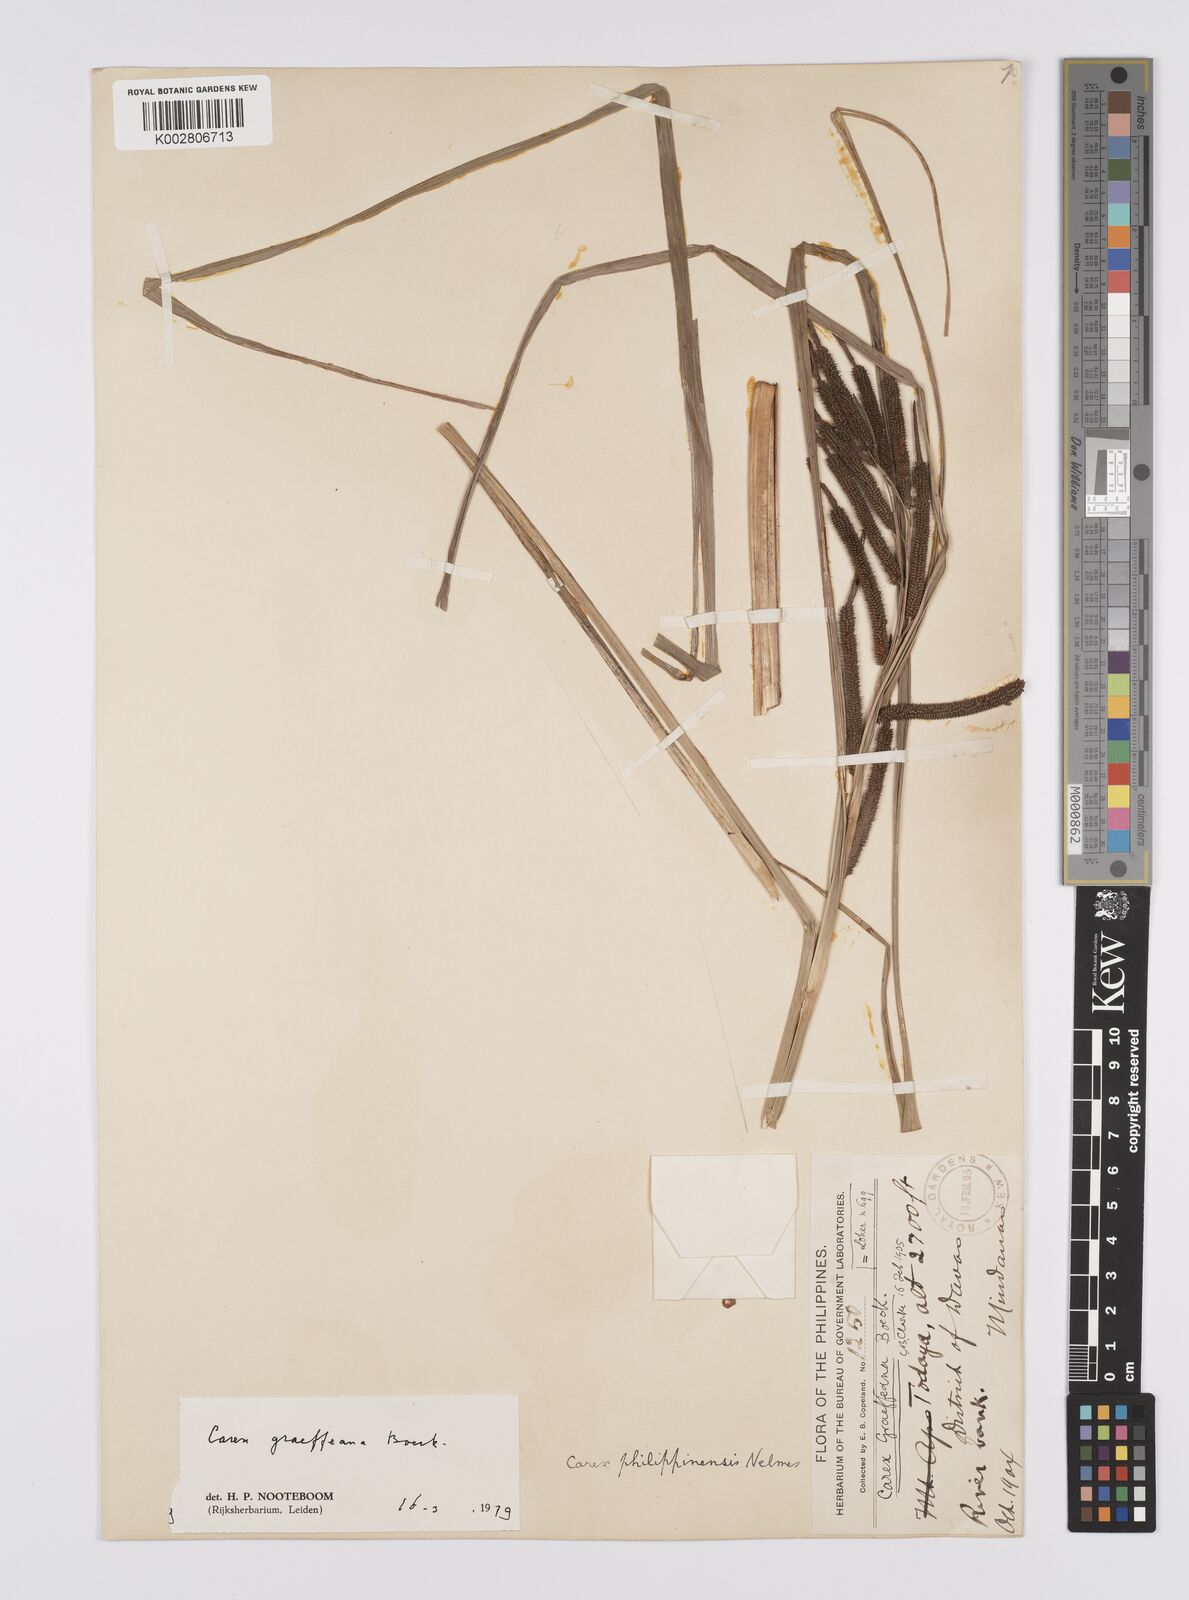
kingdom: Plantae
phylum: Tracheophyta
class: Liliopsida
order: Poales
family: Cyperaceae
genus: Carex
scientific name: Carex graeffeana
